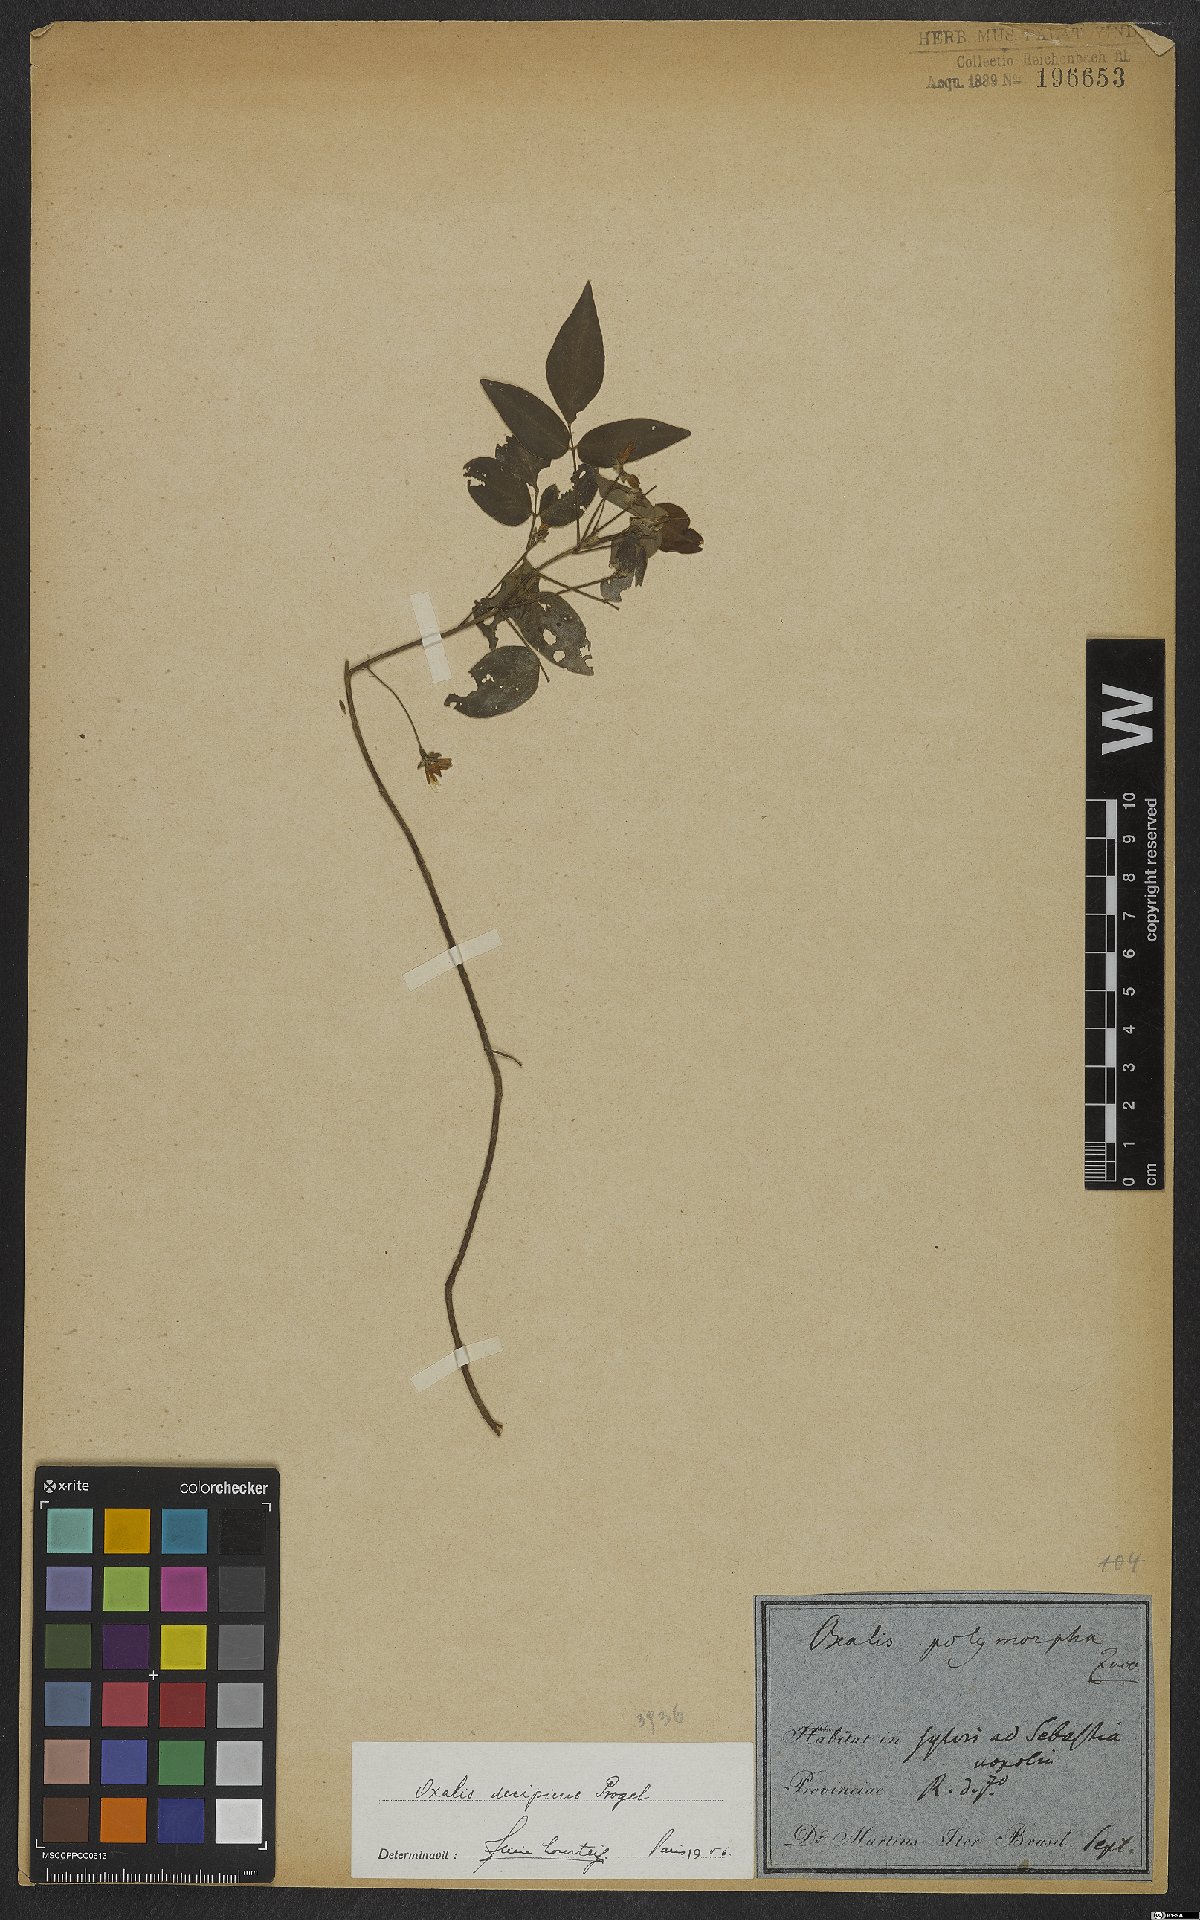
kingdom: Plantae
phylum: Tracheophyta
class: Magnoliopsida
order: Oxalidales
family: Oxalidaceae
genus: Oxalis
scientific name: Oxalis purpurea
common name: Purple woodsorrel
